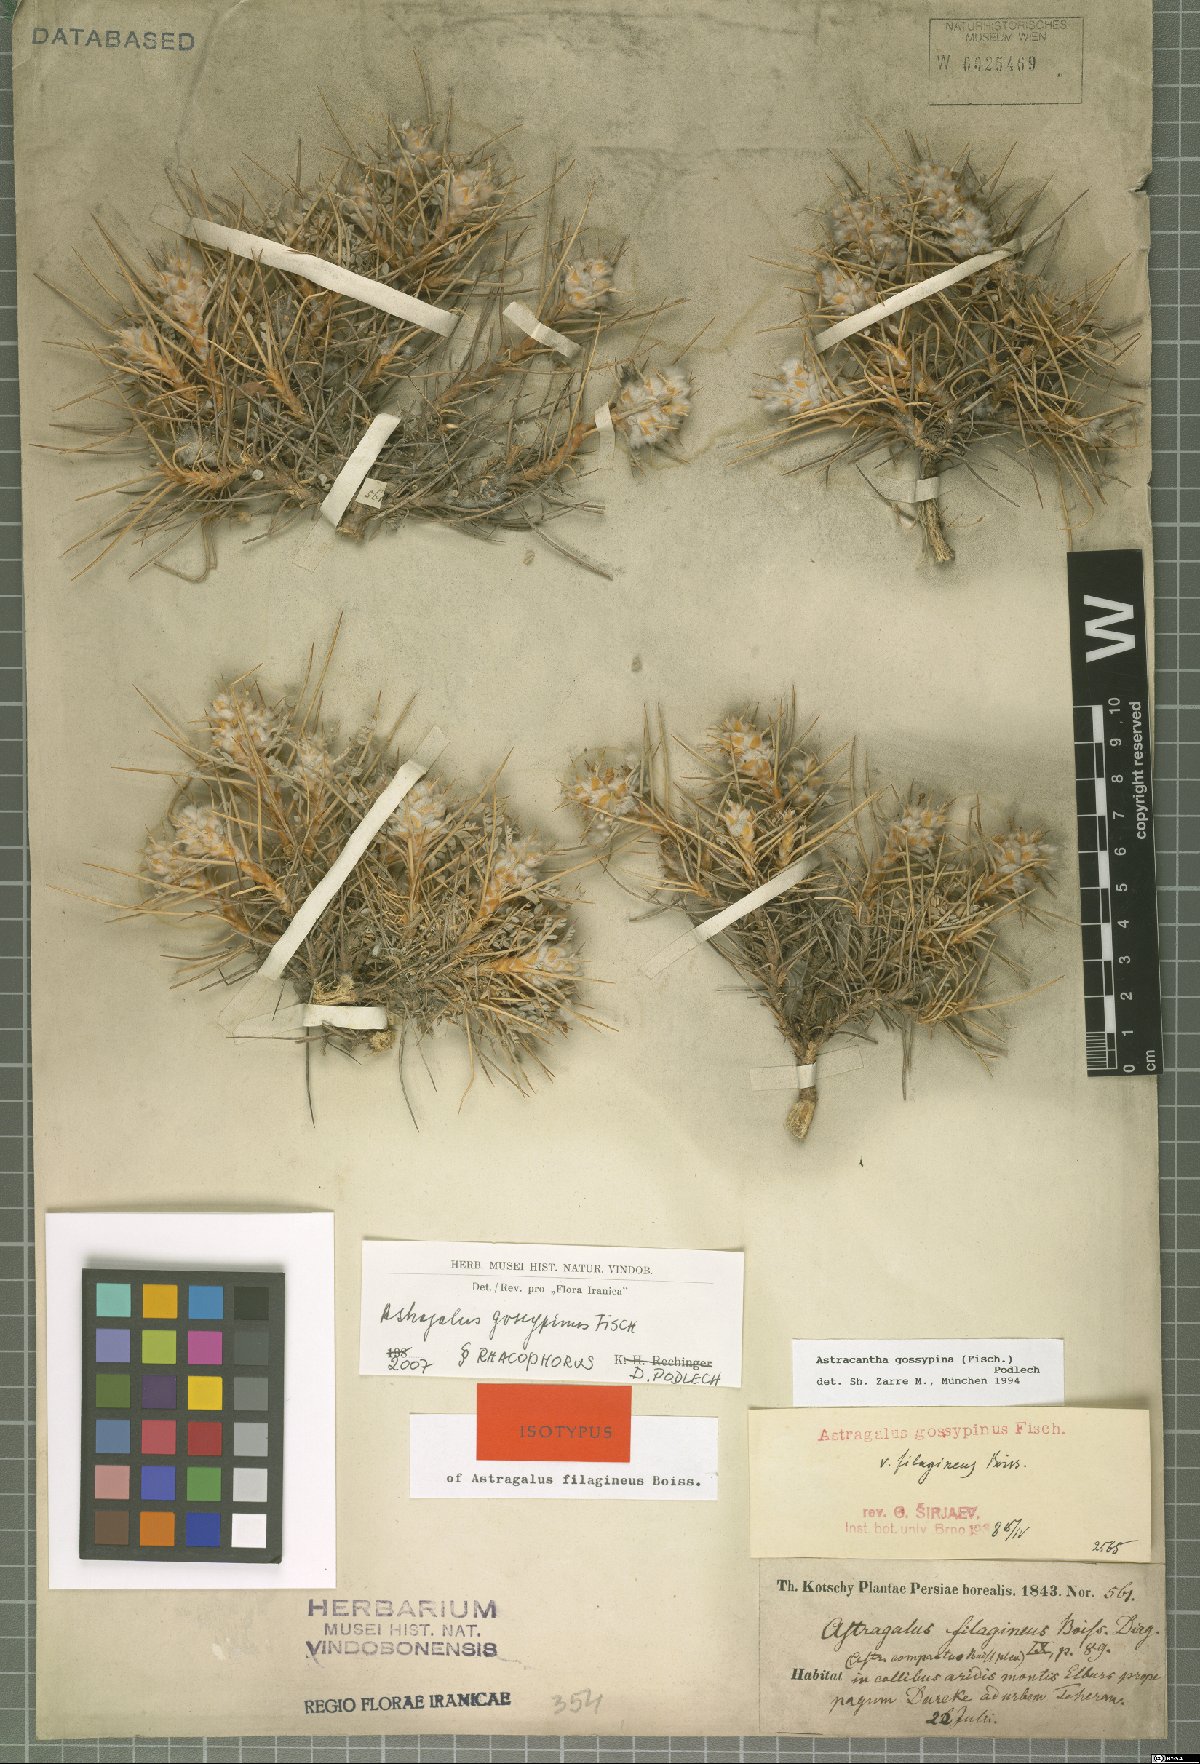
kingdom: Plantae
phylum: Tracheophyta
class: Magnoliopsida
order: Fabales
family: Fabaceae
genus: Astragalus
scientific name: Astragalus gossypinus
